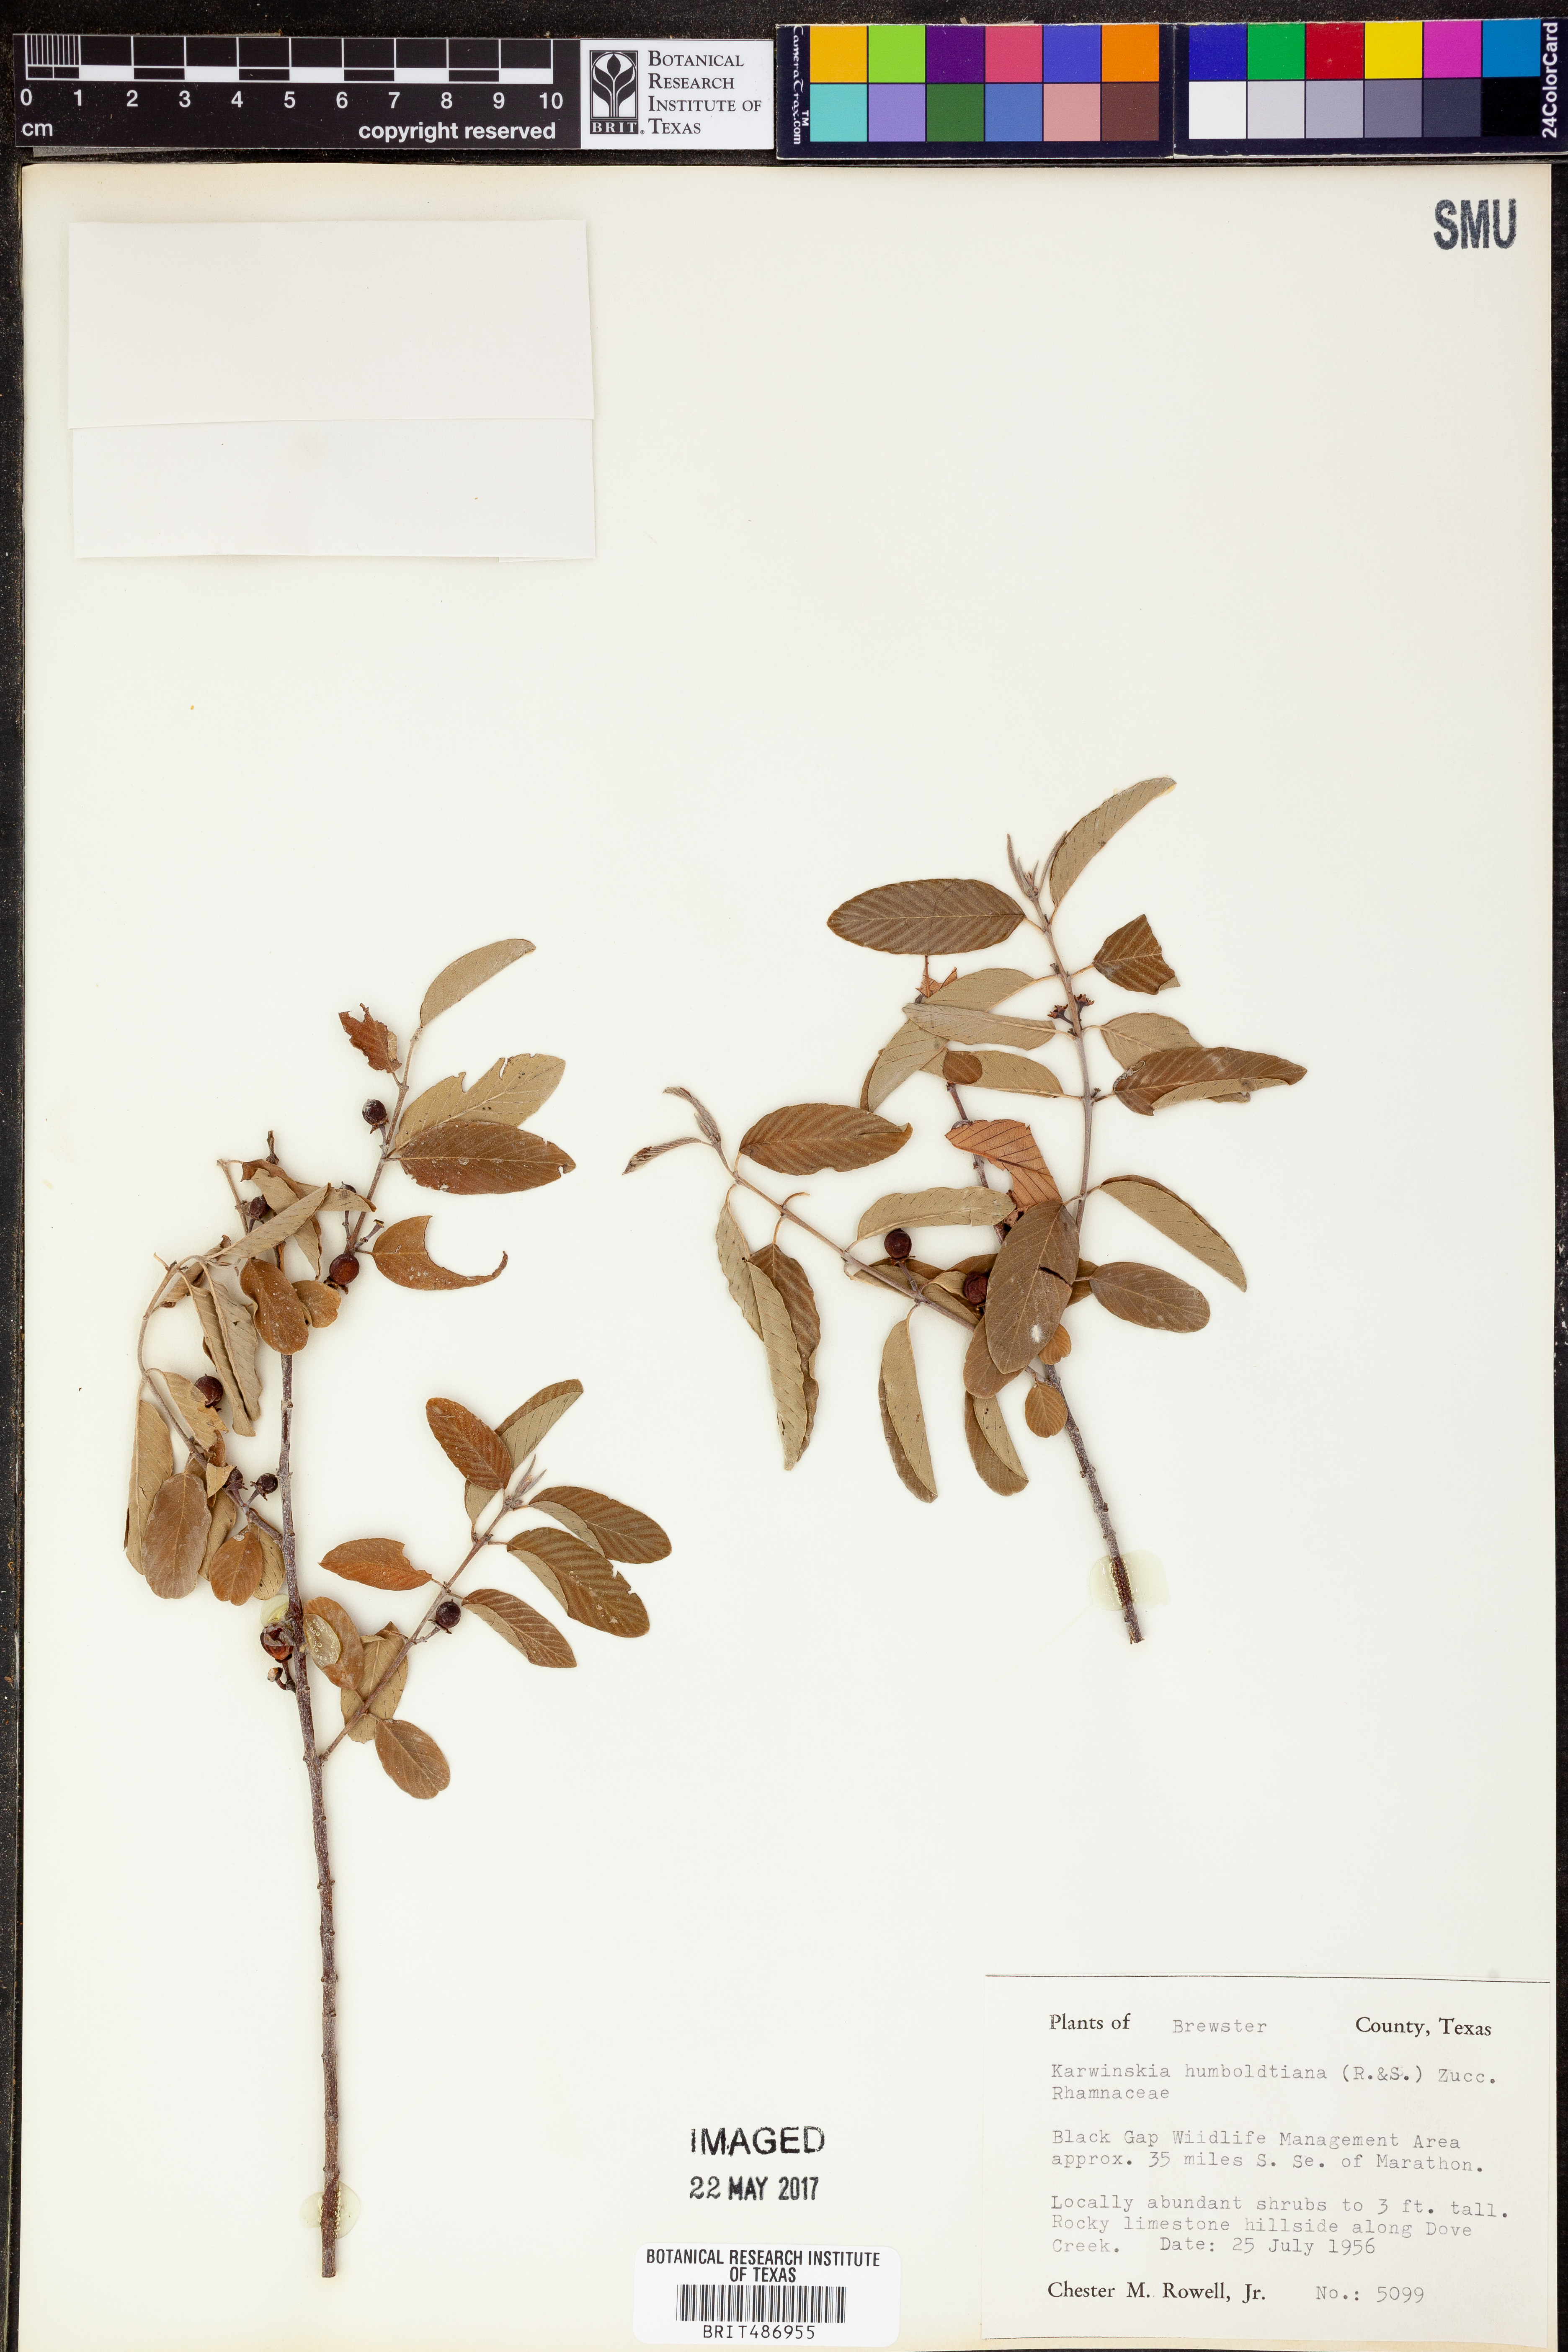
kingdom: Plantae
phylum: Tracheophyta
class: Magnoliopsida
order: Rosales
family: Rhamnaceae
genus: Karwinskia
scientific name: Karwinskia humboldtiana
